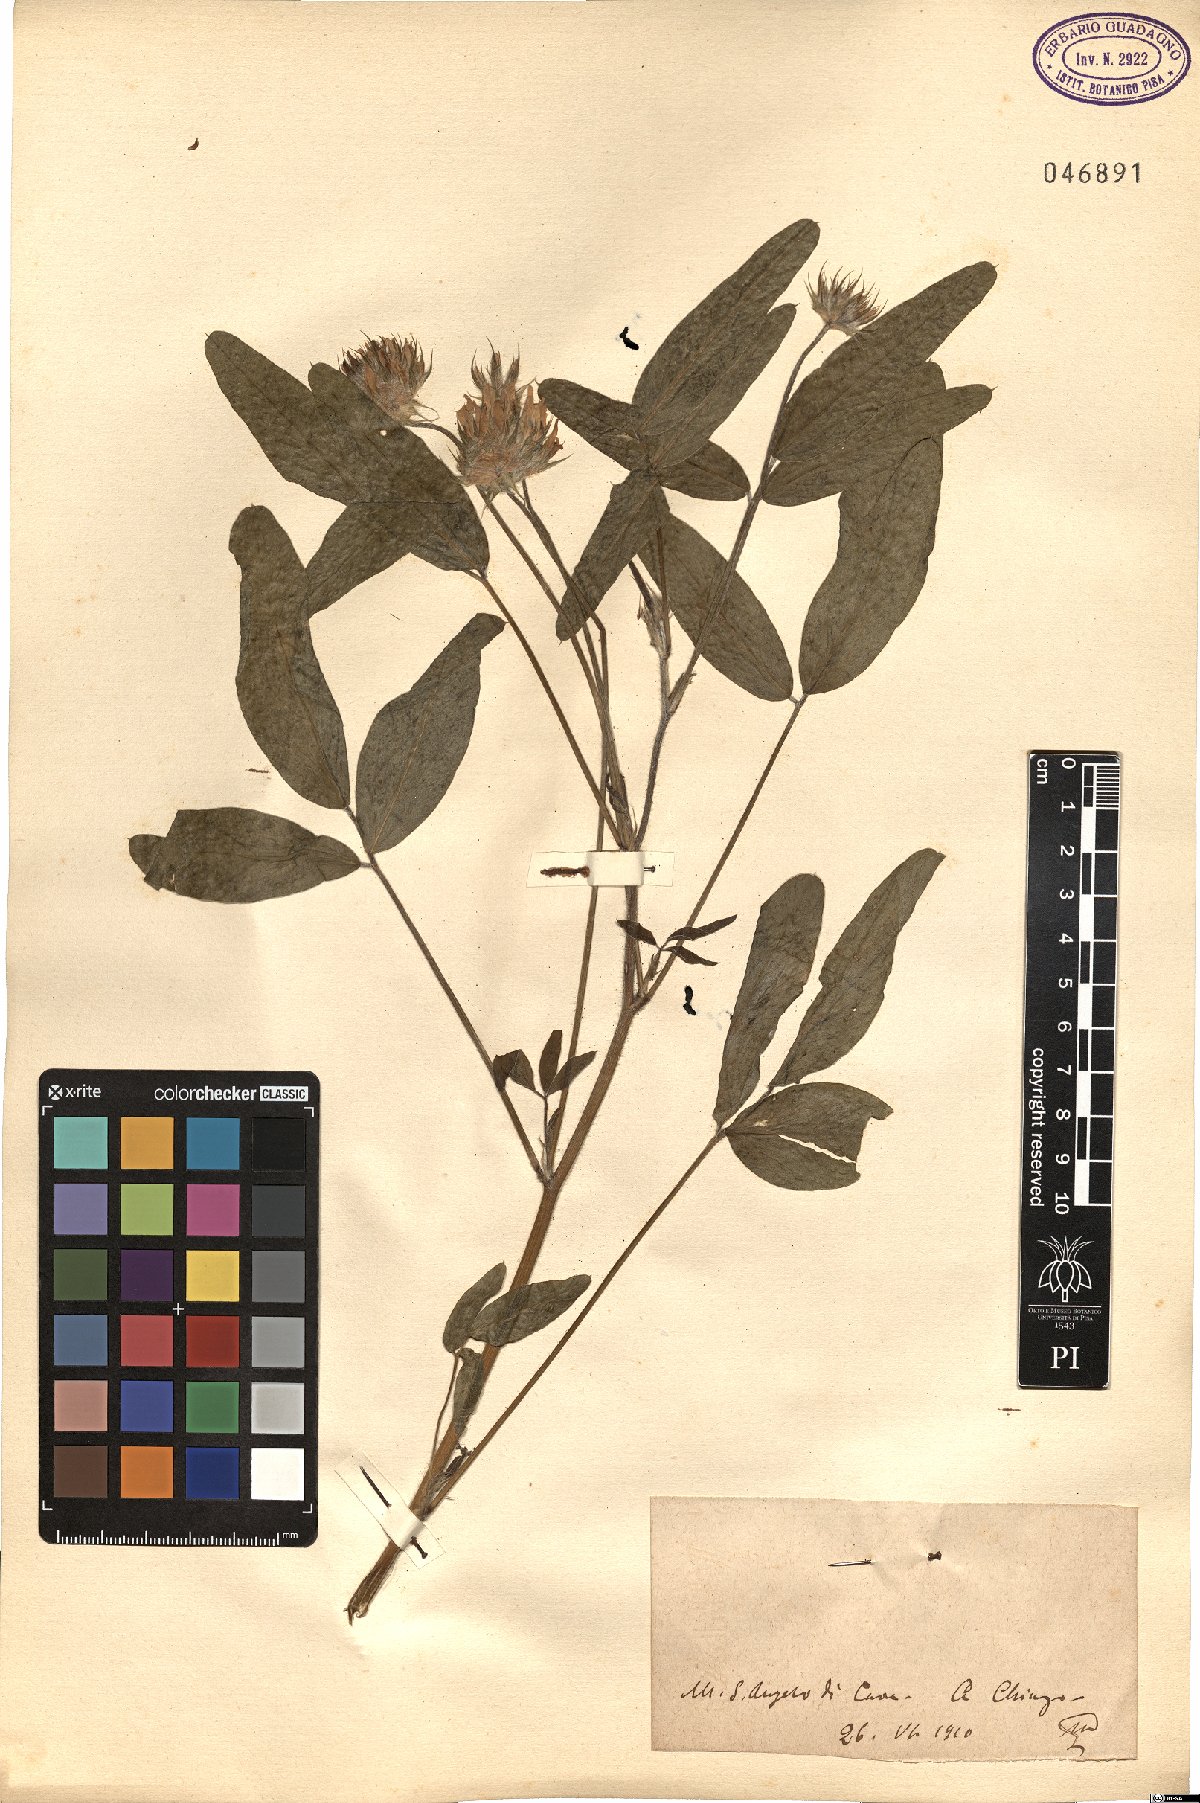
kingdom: Plantae
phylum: Tracheophyta
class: Magnoliopsida
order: Fabales
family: Fabaceae
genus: Psoralea
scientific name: Psoralea
